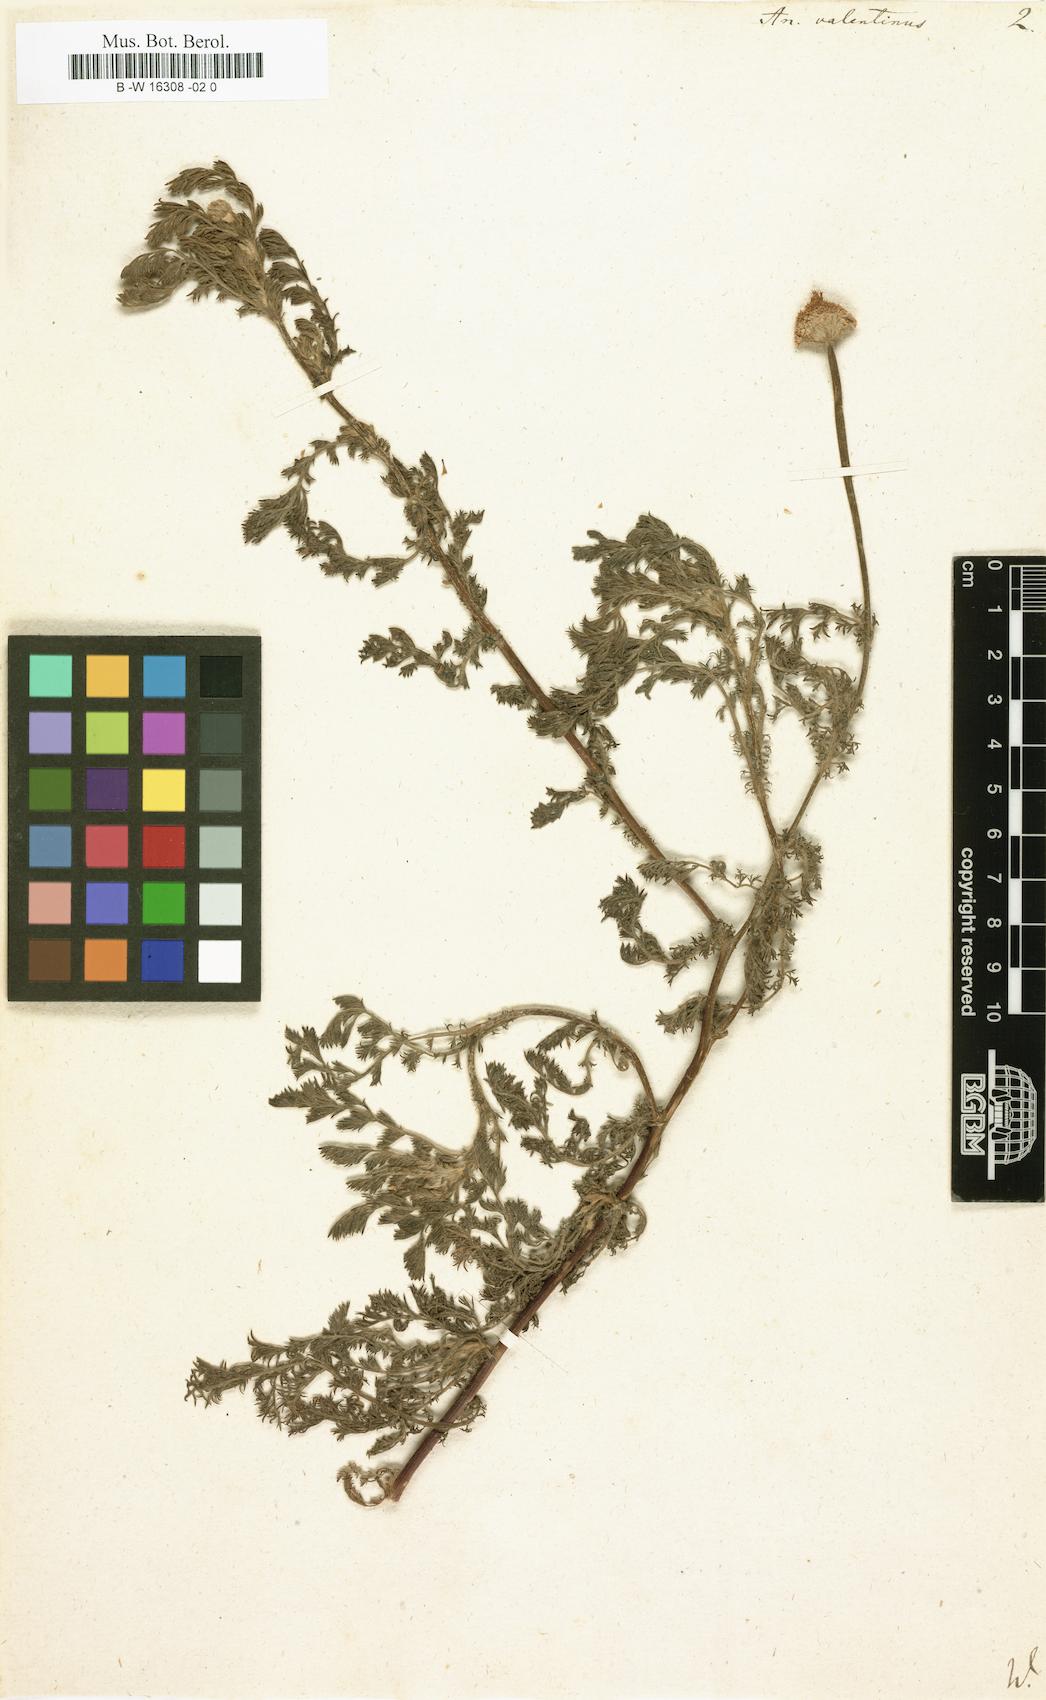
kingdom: Plantae
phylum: Tracheophyta
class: Magnoliopsida
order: Asterales
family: Asteraceae
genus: Anacyclus
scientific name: Anacyclus valentinus
